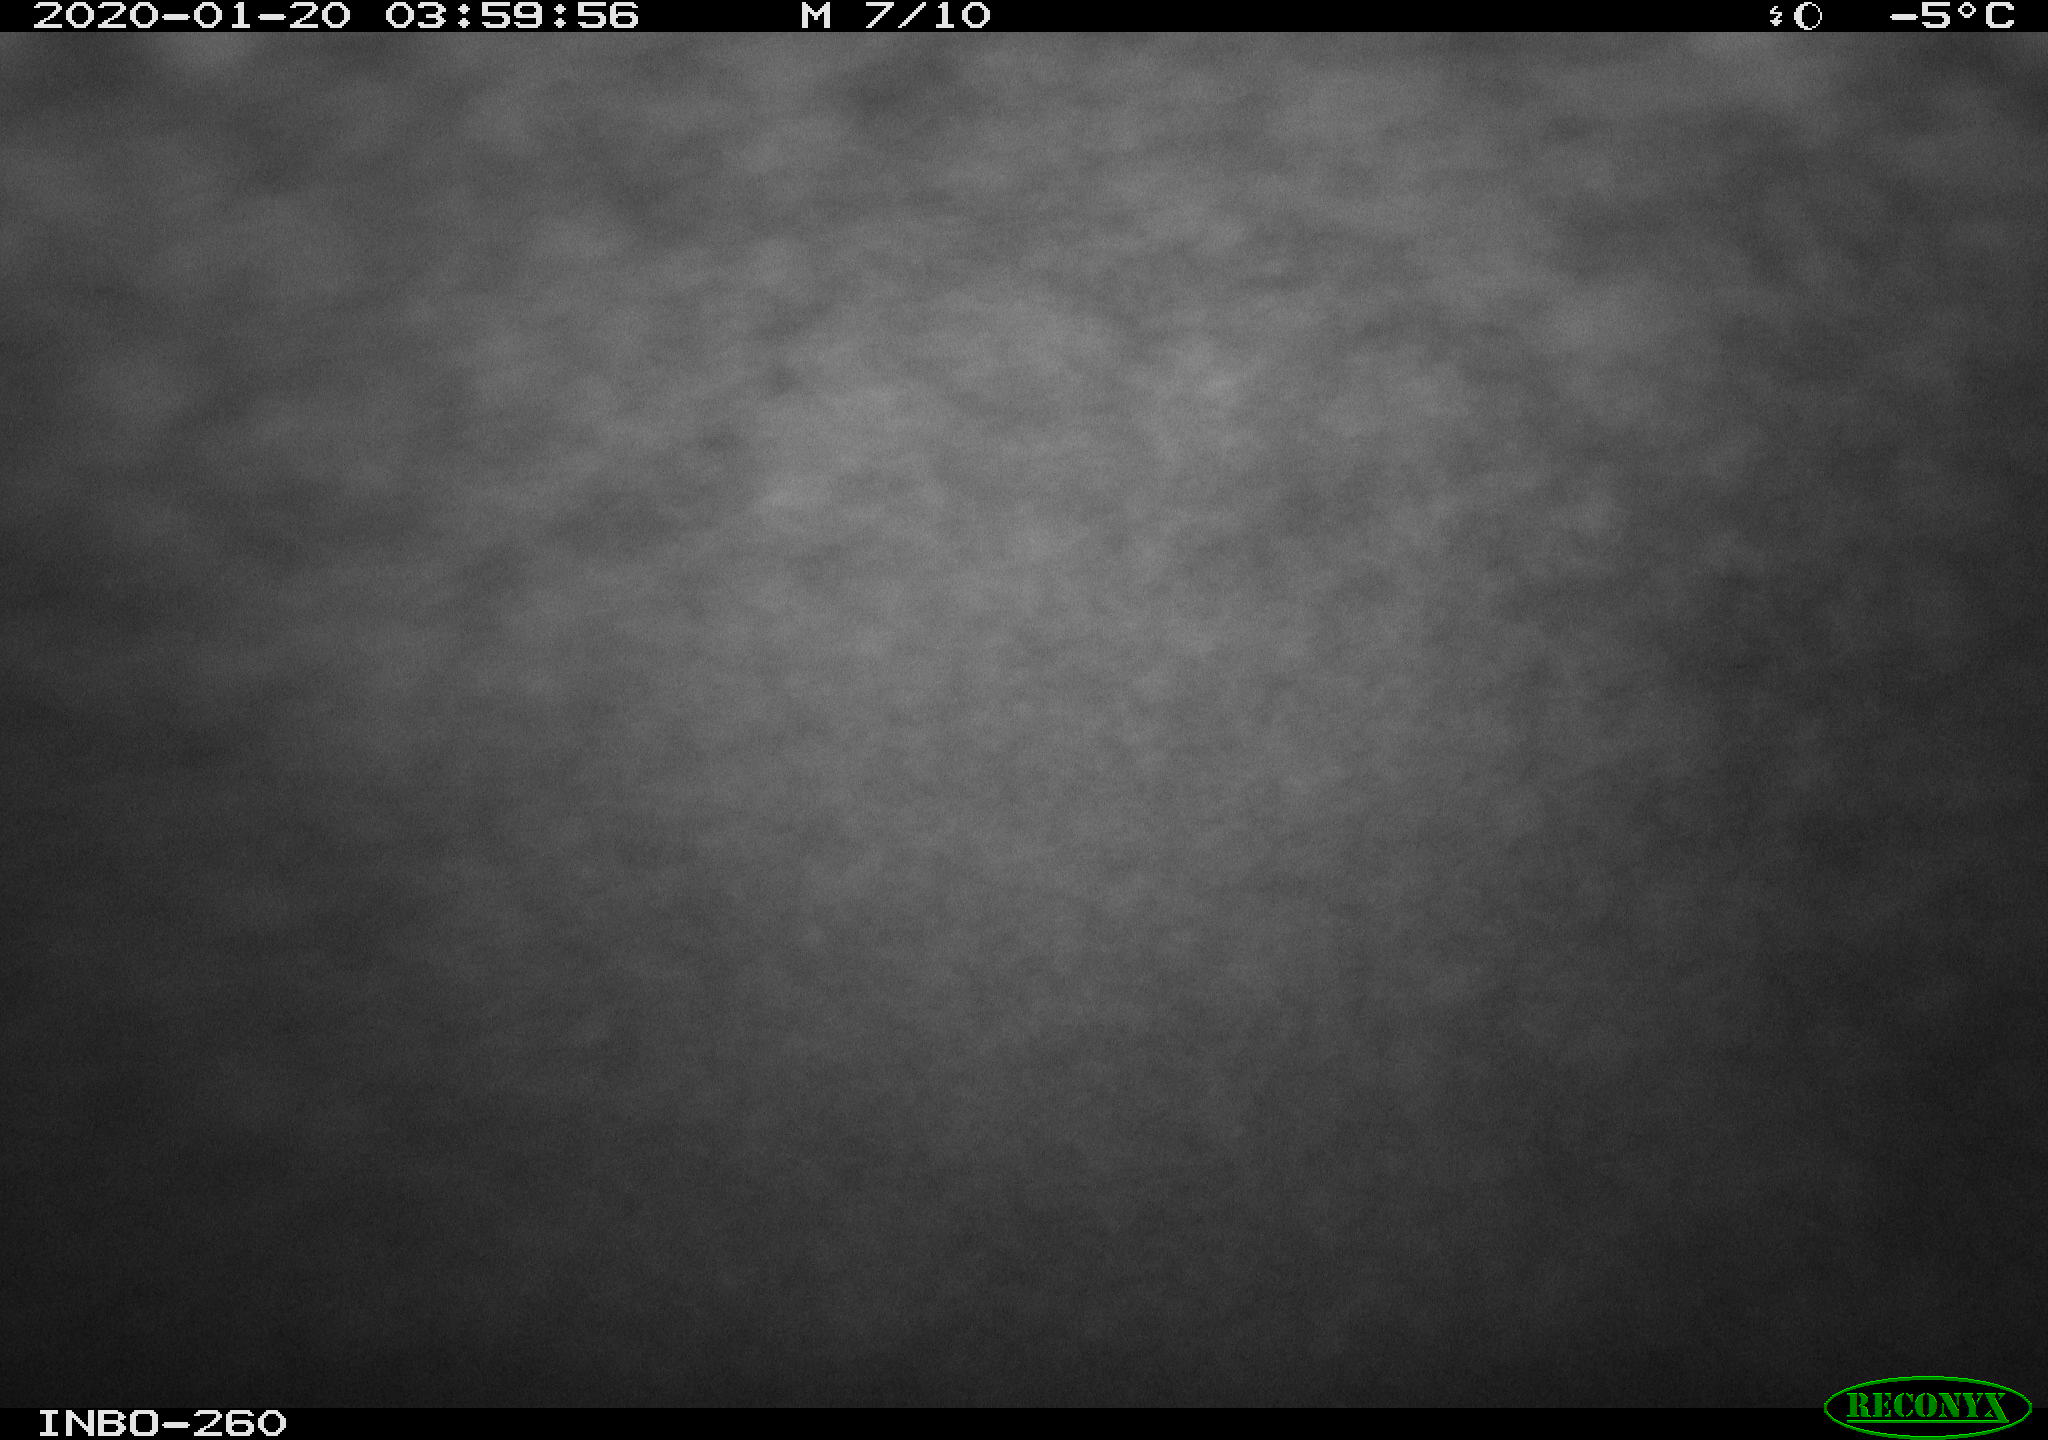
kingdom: Animalia
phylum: Chordata
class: Aves
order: Anseriformes
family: Anatidae
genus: Anas
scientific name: Anas platyrhynchos
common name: Mallard
